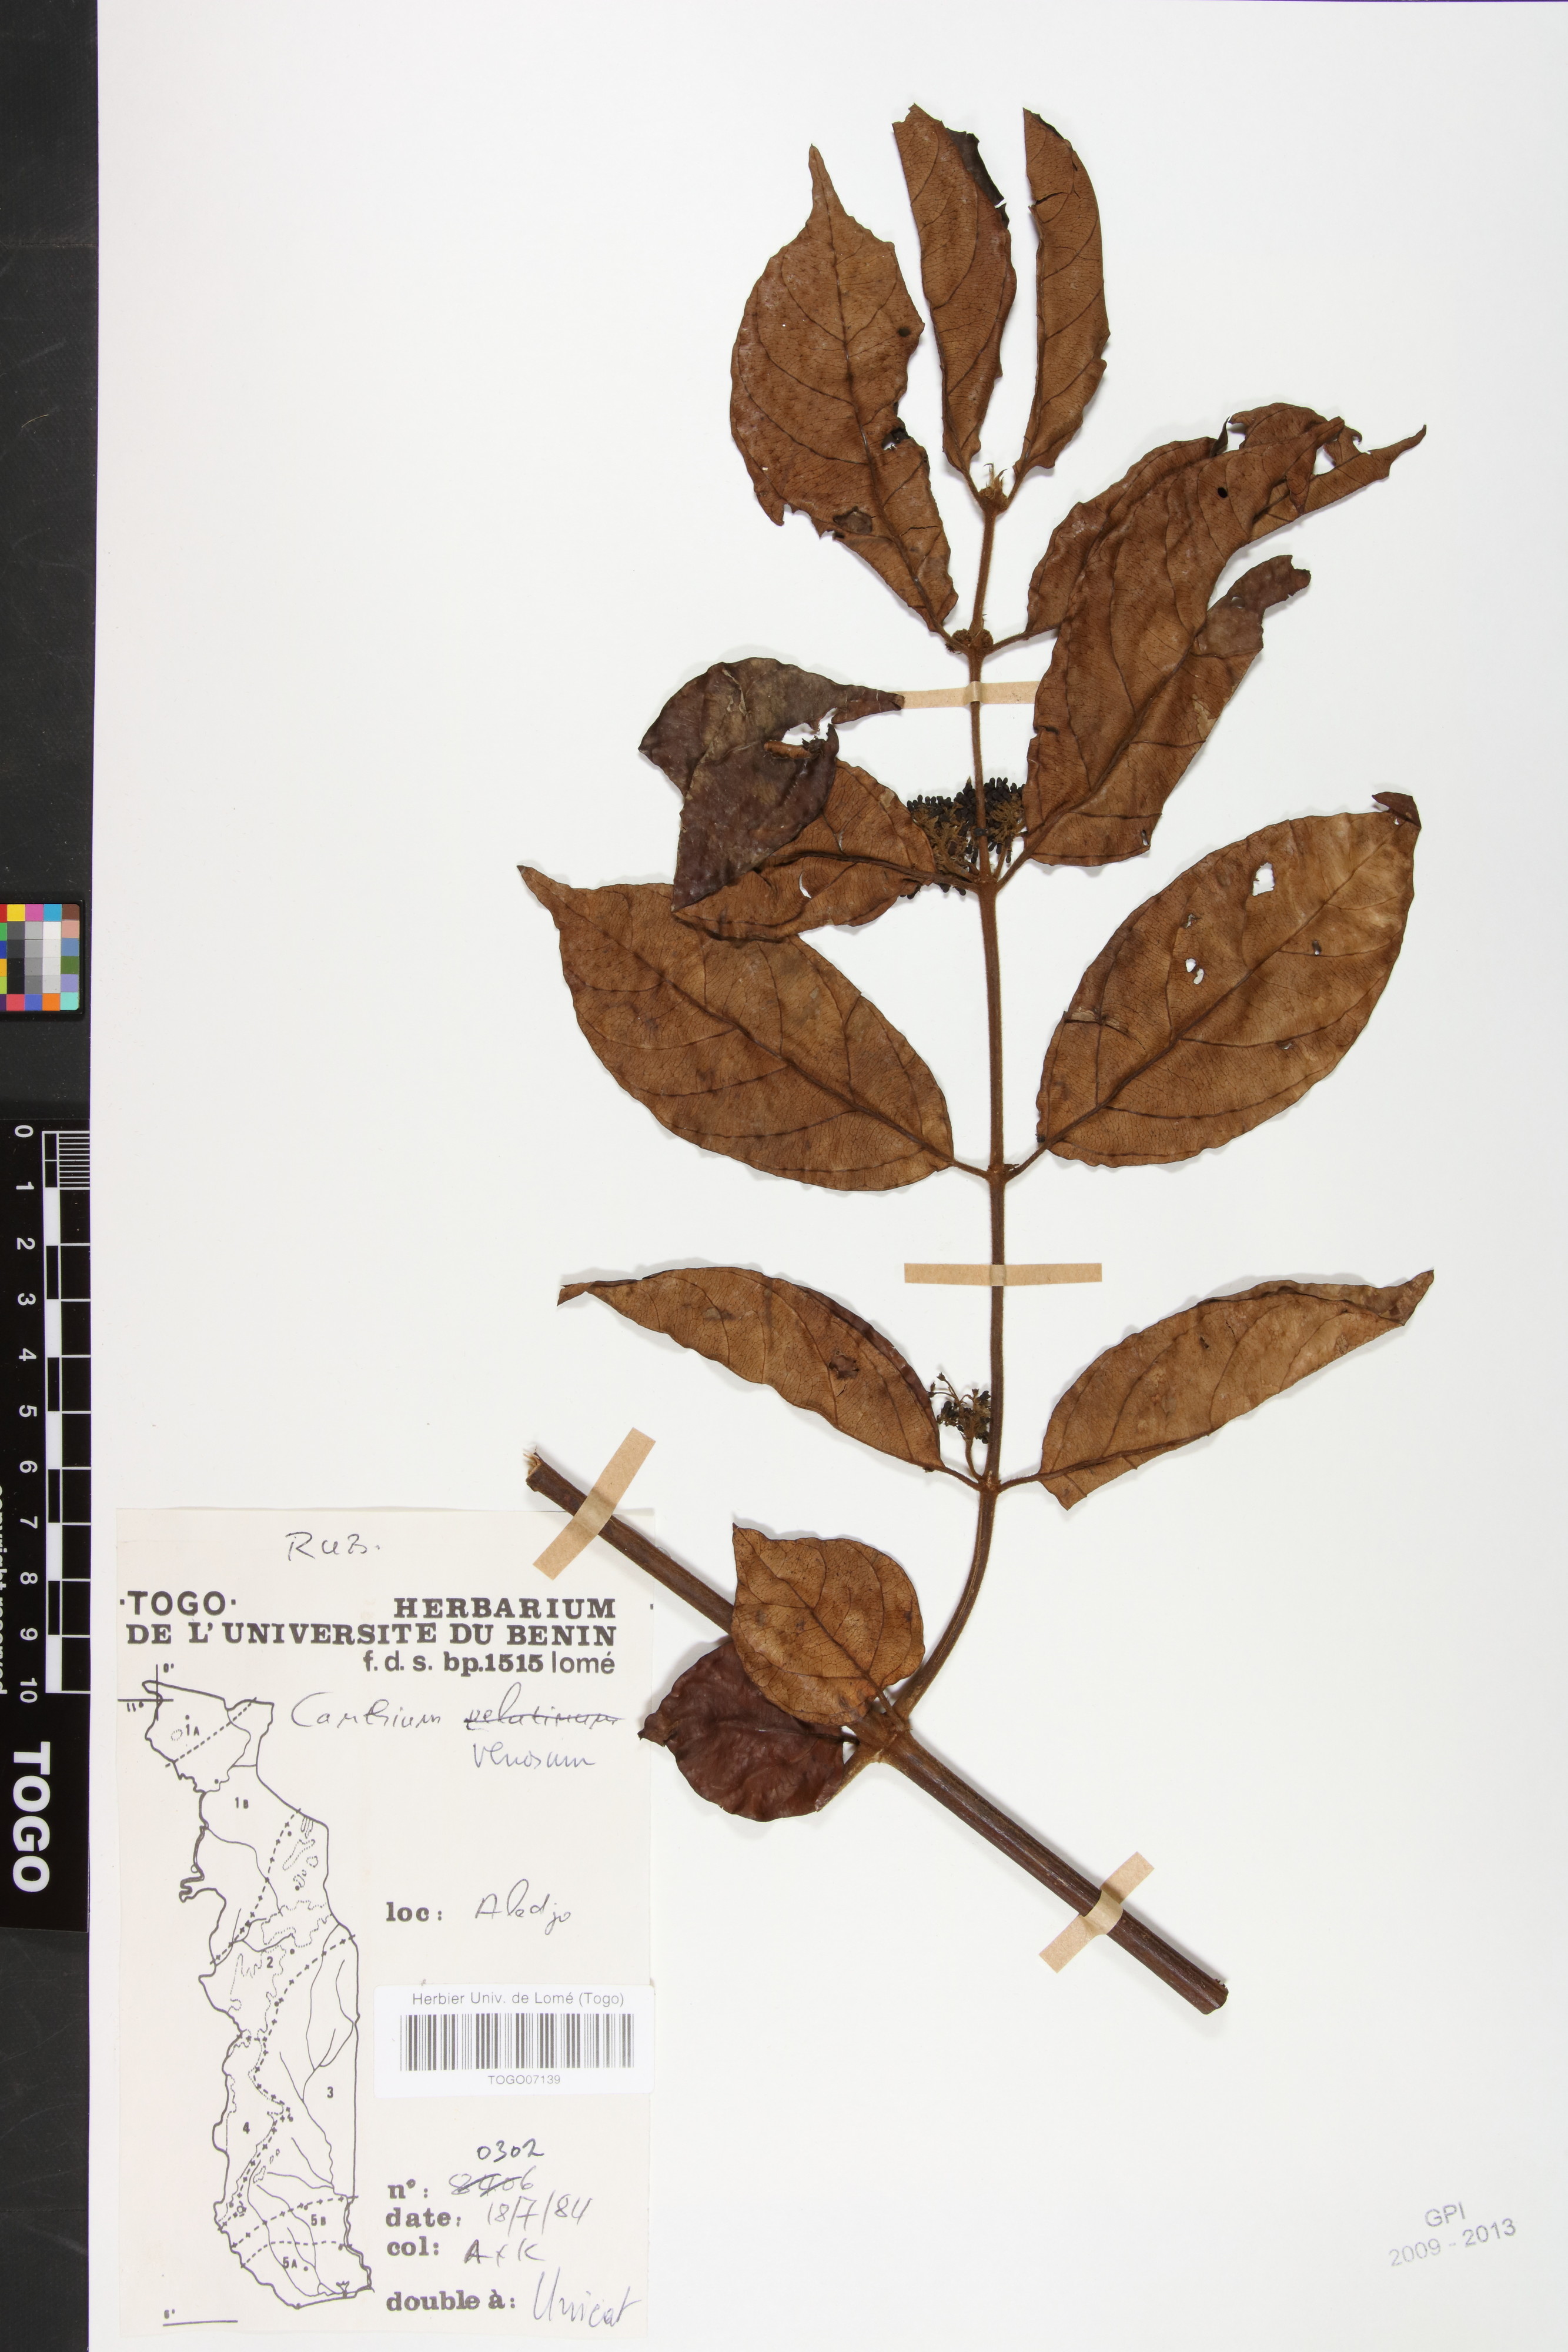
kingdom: Plantae
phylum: Tracheophyta
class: Magnoliopsida
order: Gentianales
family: Rubiaceae
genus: Keetia
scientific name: Keetia venosa
